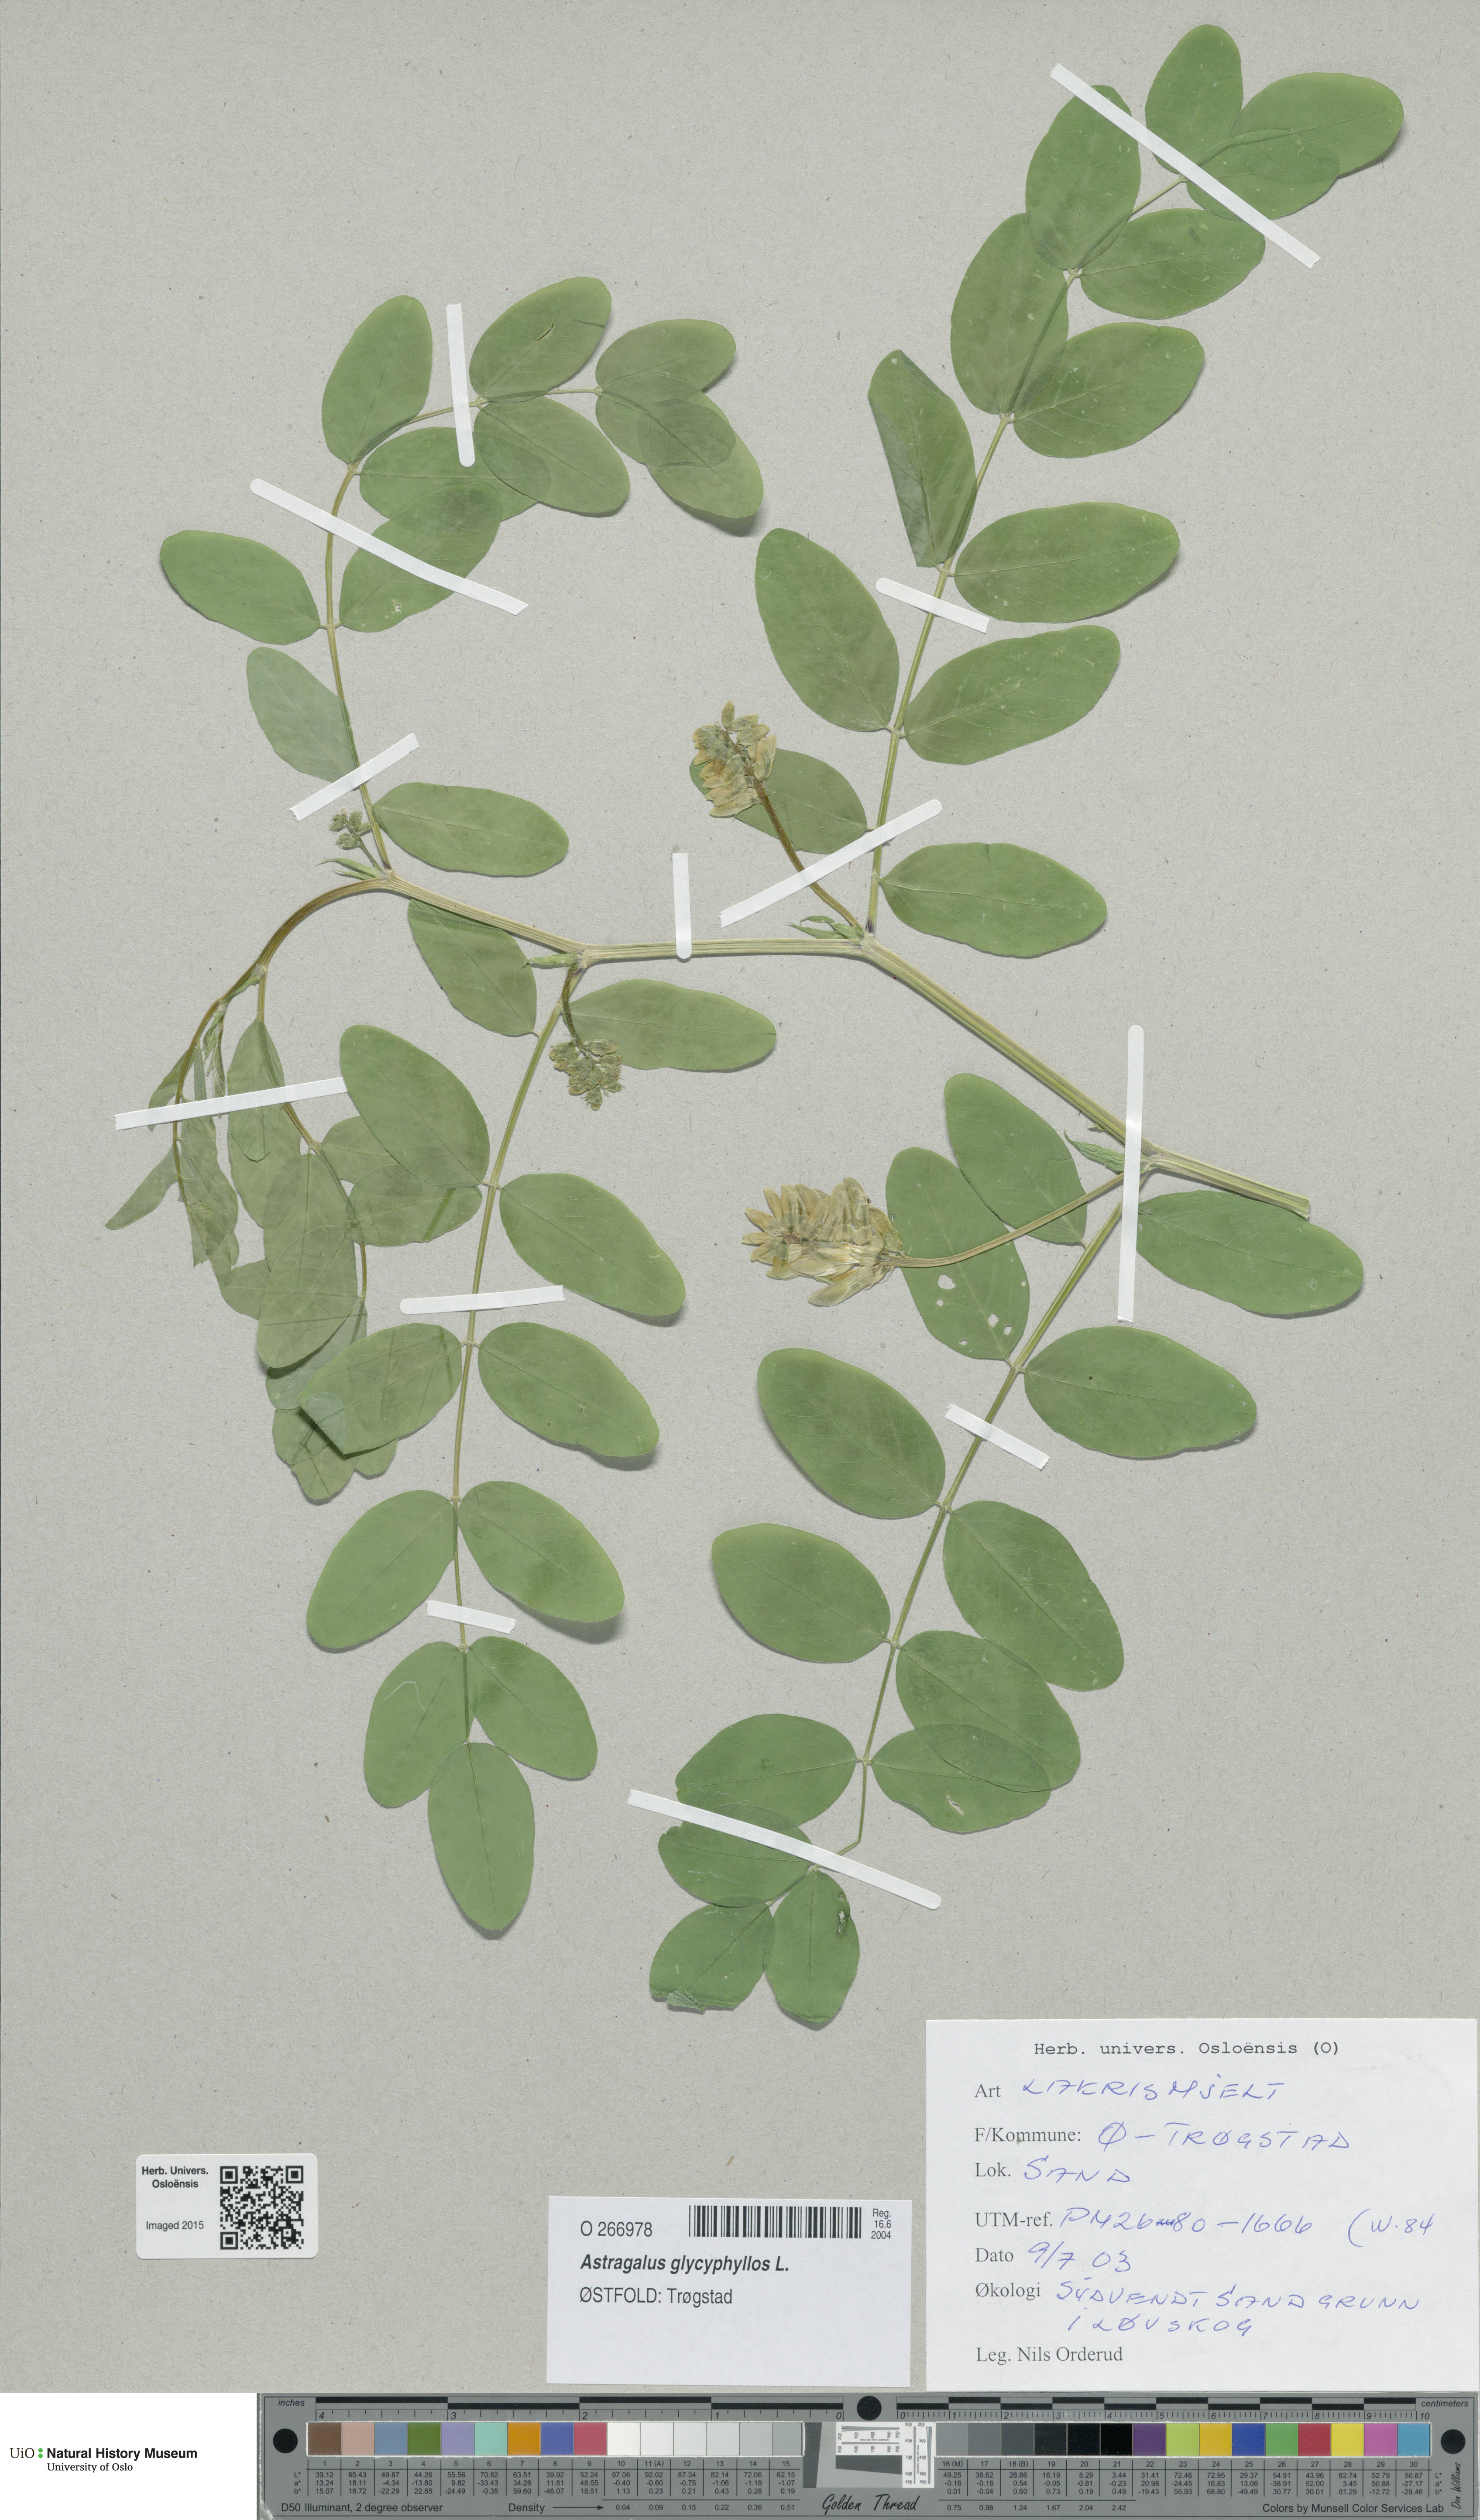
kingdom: Plantae
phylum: Tracheophyta
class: Magnoliopsida
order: Fabales
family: Fabaceae
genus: Astragalus
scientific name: Astragalus glycyphyllos
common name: Wild liquorice
